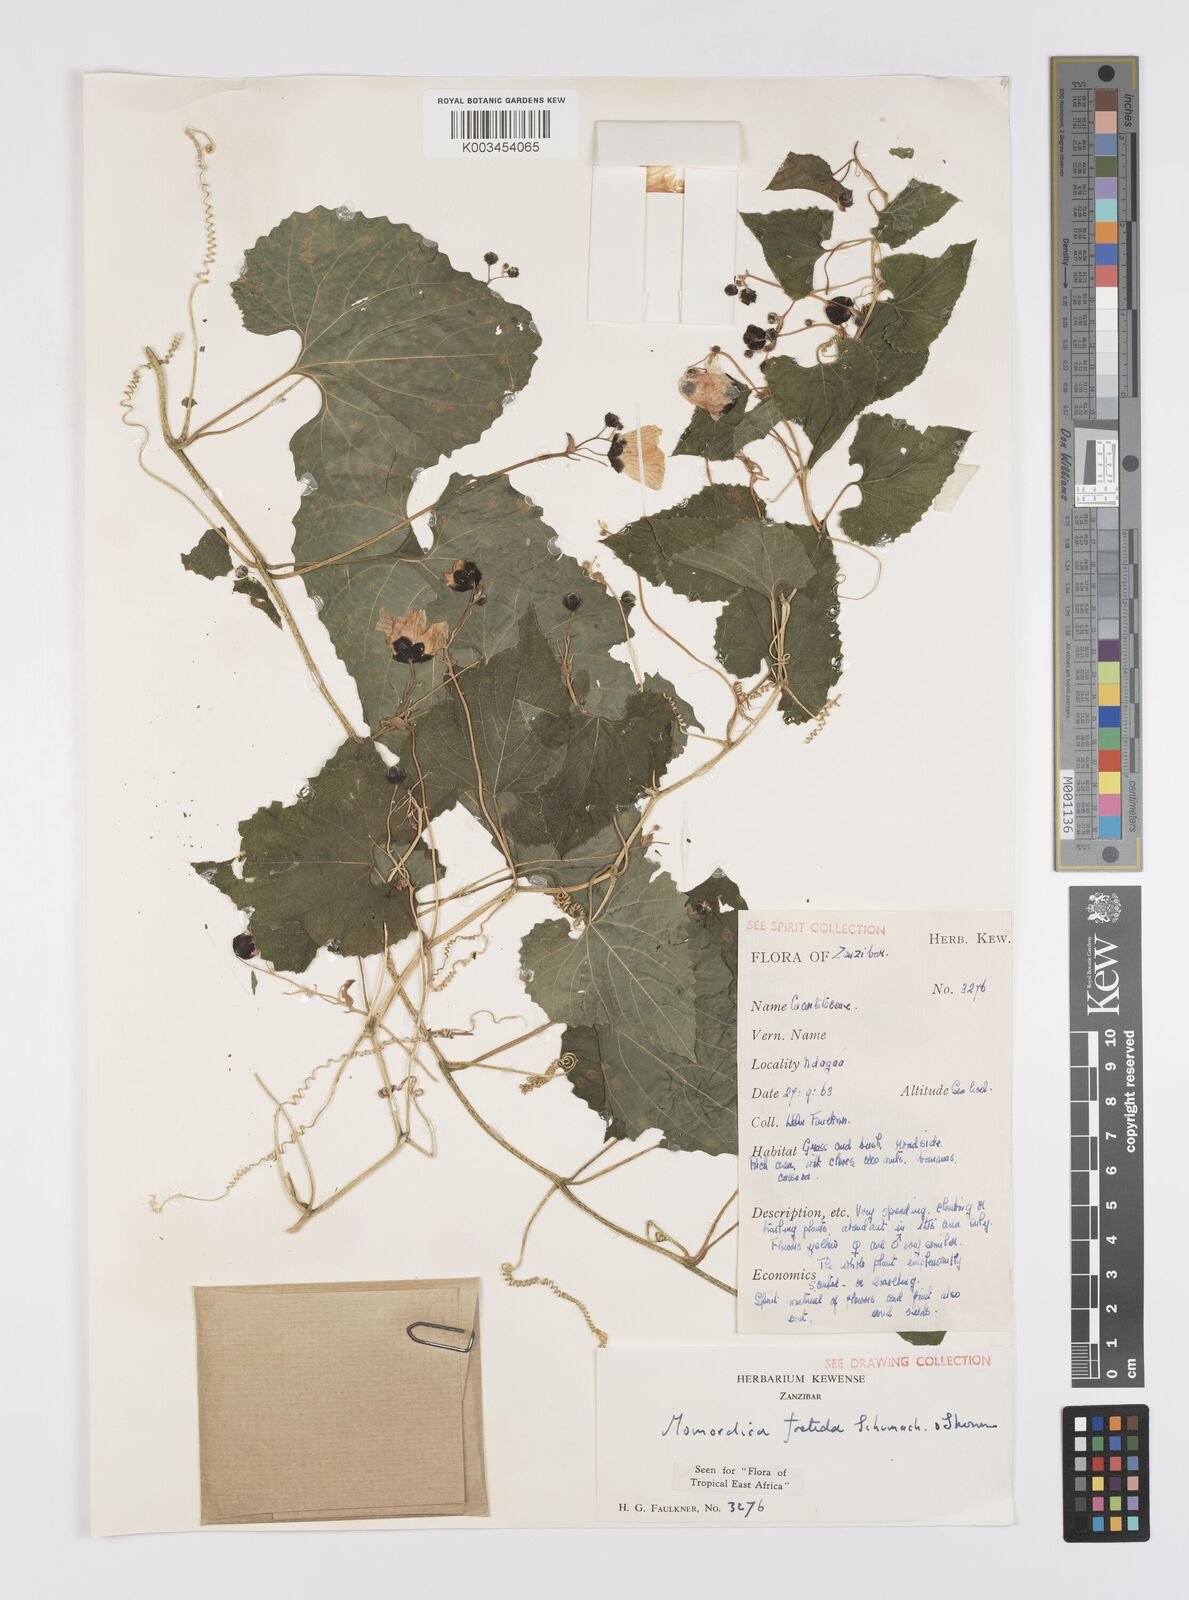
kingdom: Plantae
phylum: Tracheophyta
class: Magnoliopsida
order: Cucurbitales
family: Cucurbitaceae
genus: Momordica
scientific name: Momordica foetida
